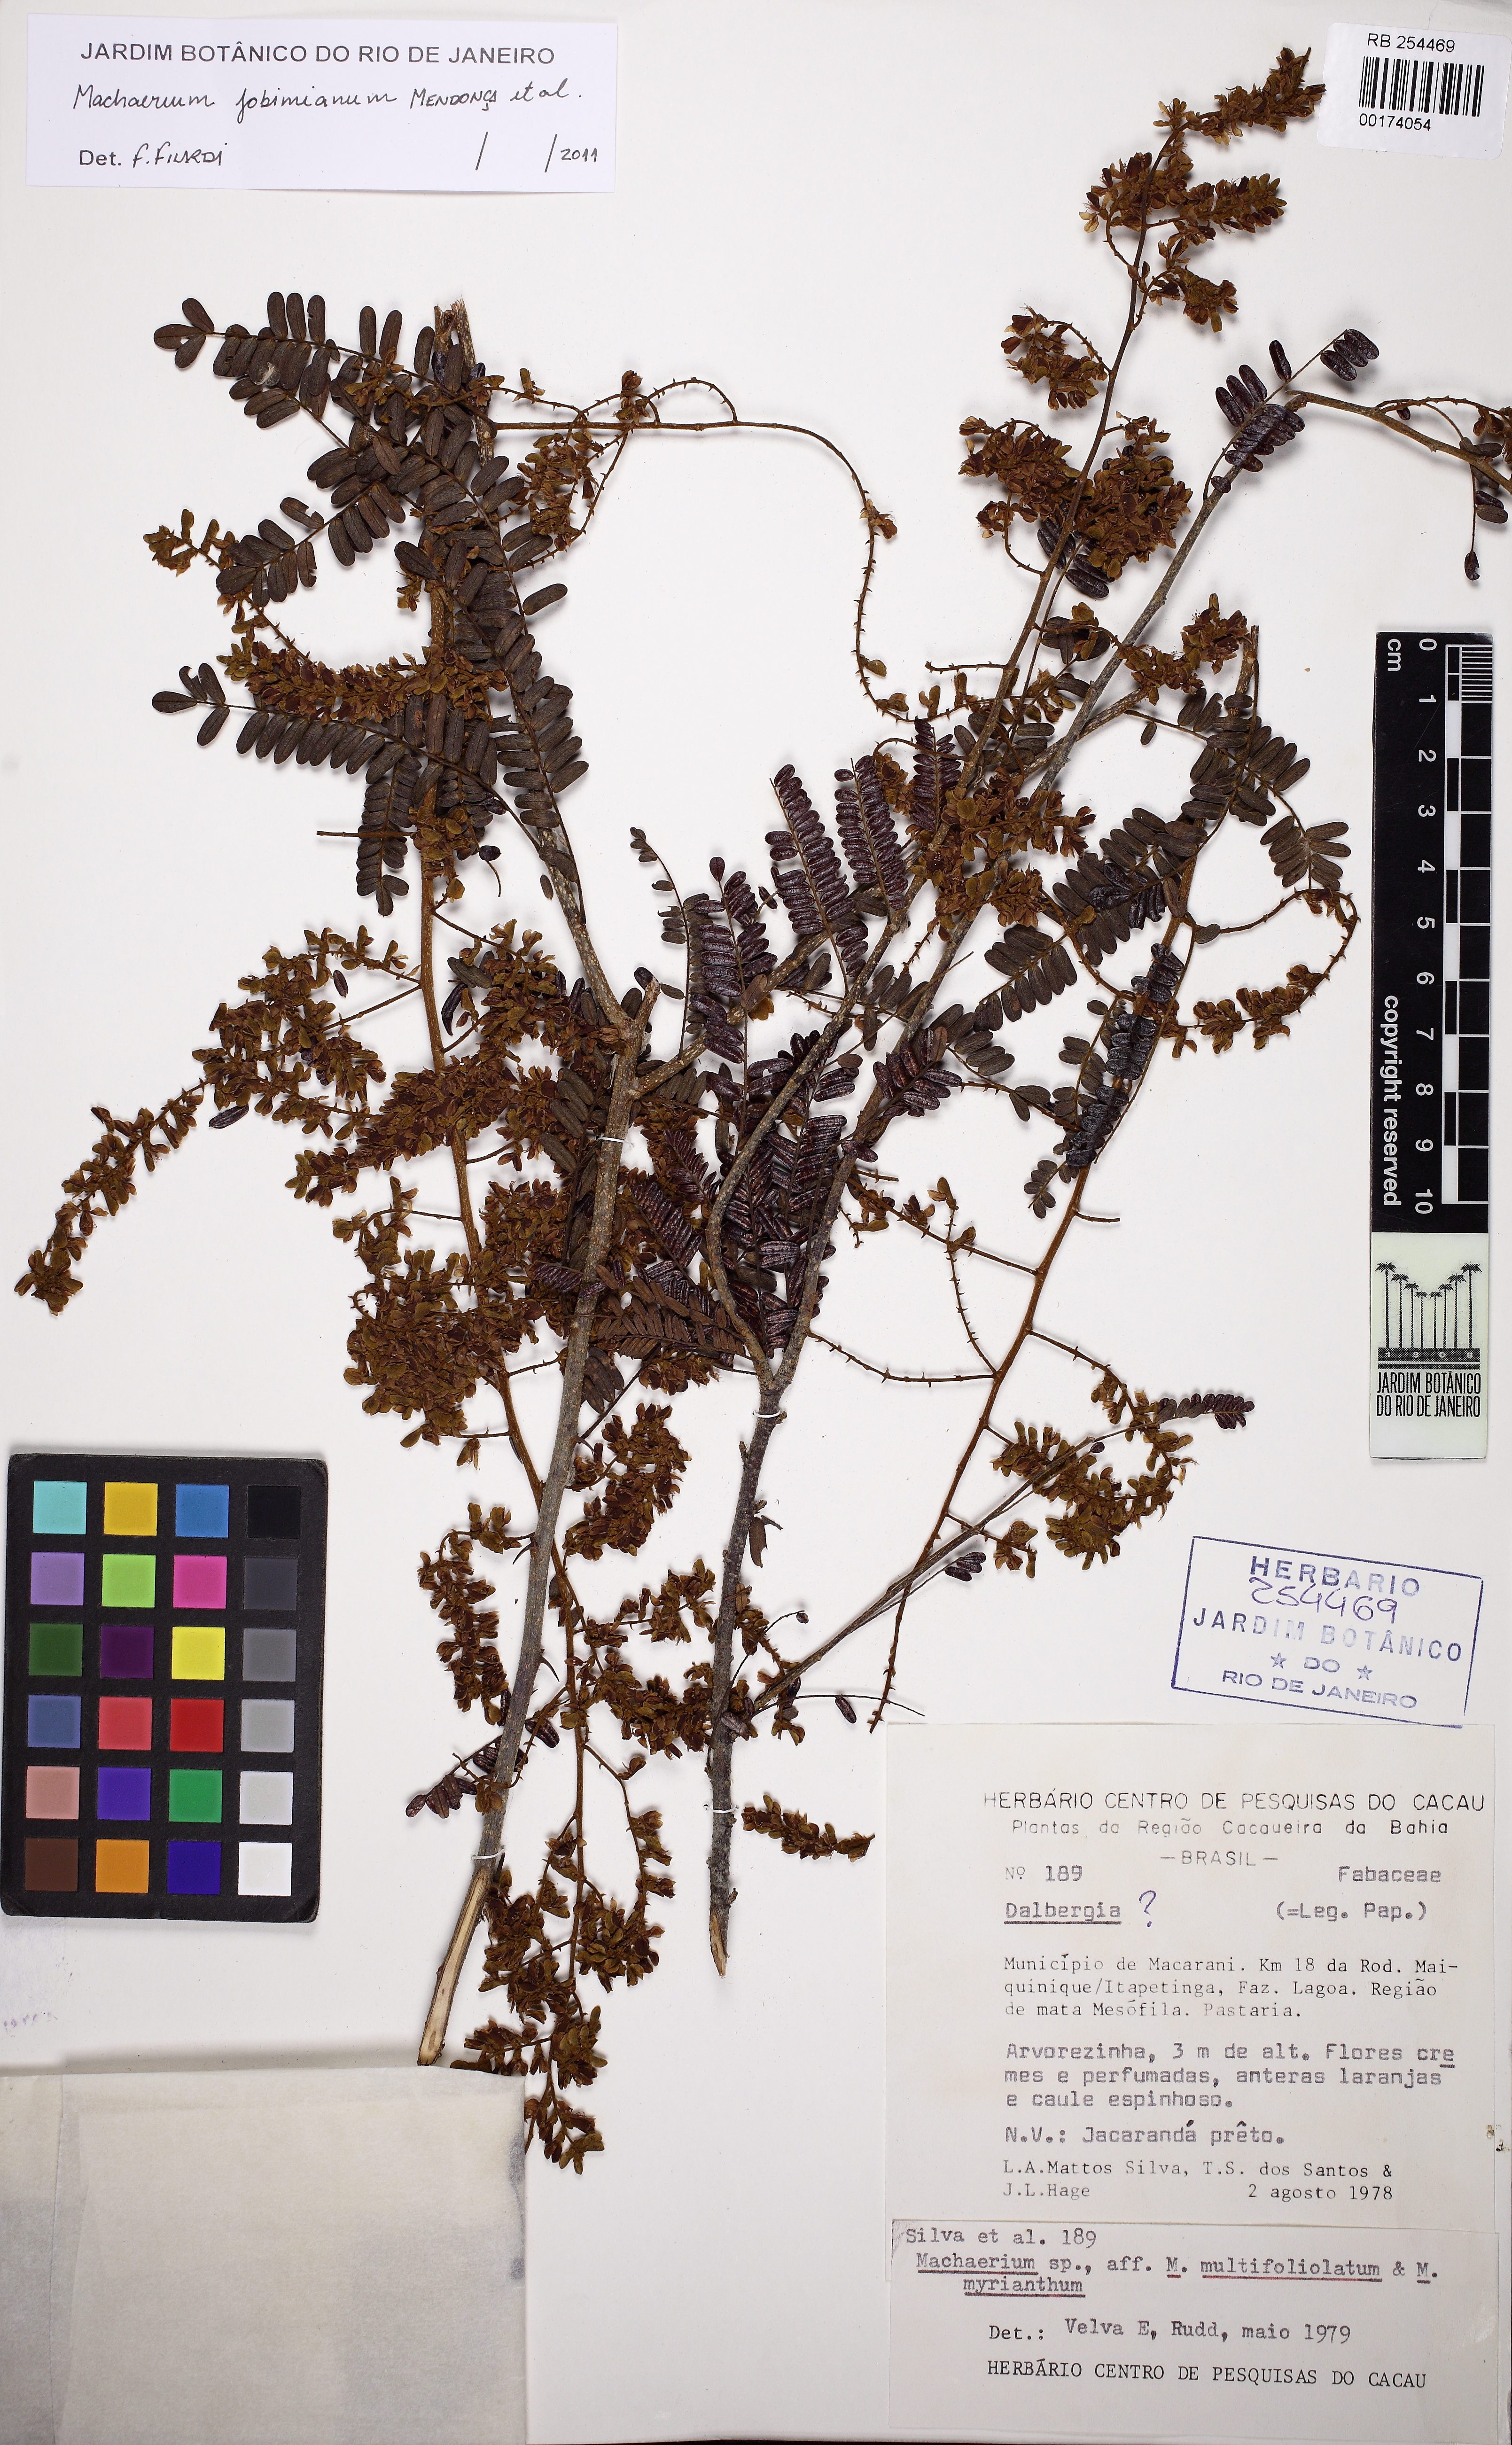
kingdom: Plantae
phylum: Tracheophyta
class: Magnoliopsida
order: Fabales
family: Fabaceae
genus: Machaerium
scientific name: Machaerium jobimianum
